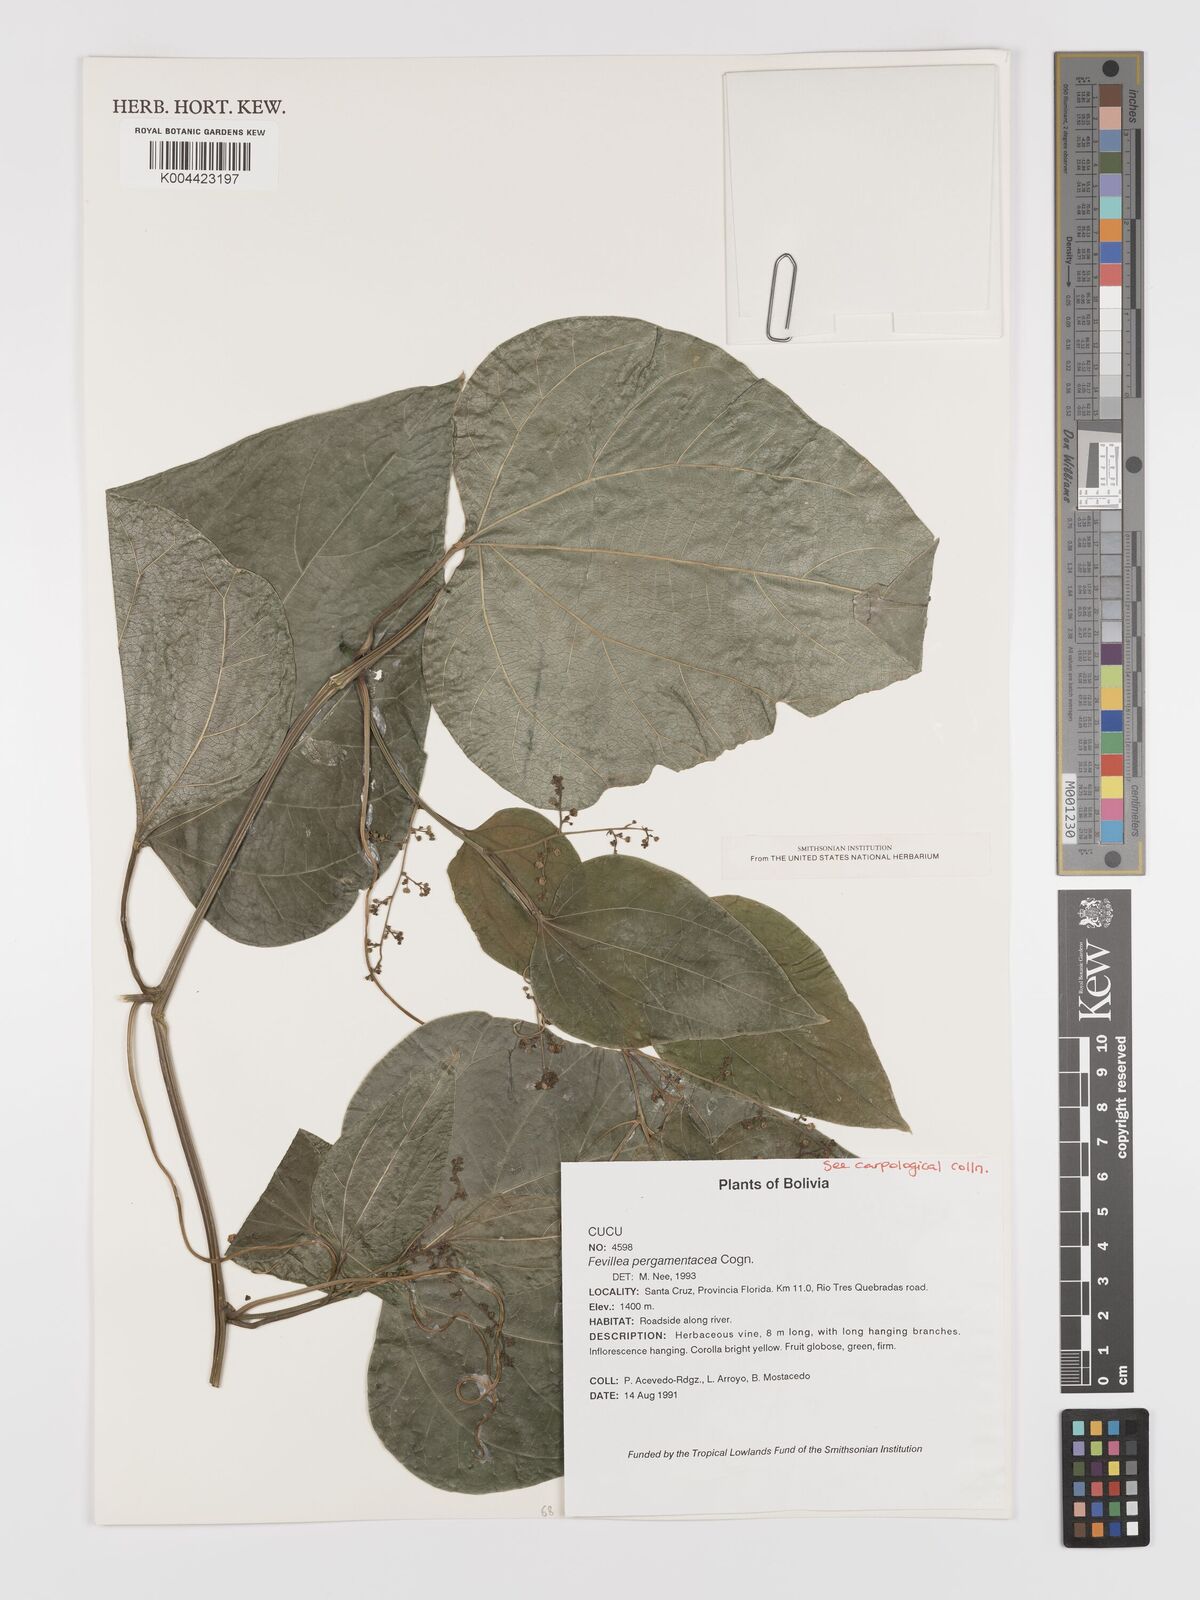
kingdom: Plantae
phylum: Tracheophyta
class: Magnoliopsida
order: Cucurbitales
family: Cucurbitaceae
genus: Fevillea
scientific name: Fevillea pergamentacea
